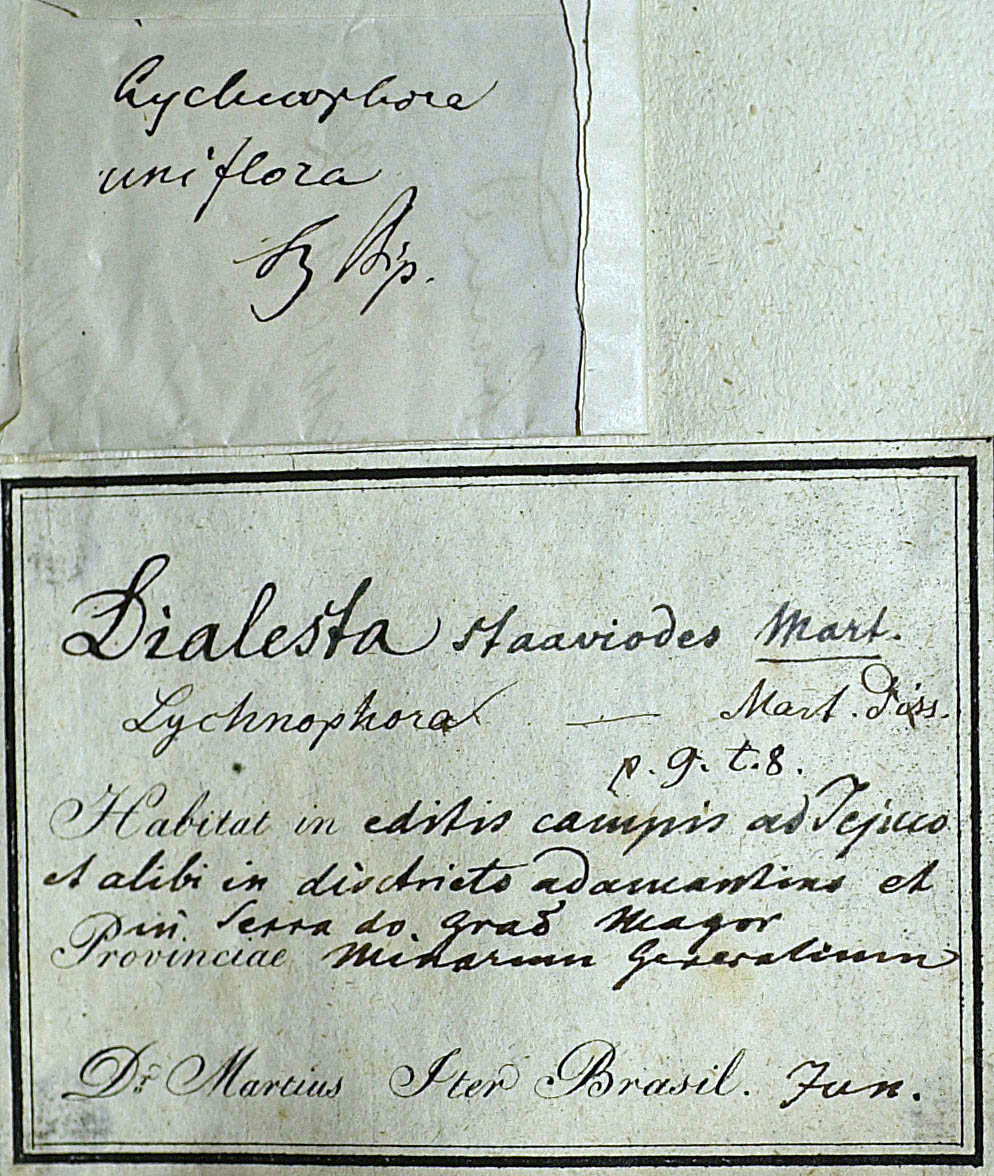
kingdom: Plantae
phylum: Tracheophyta
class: Magnoliopsida
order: Asterales
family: Asteraceae
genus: Lychnophora
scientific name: Lychnophora uniflora
